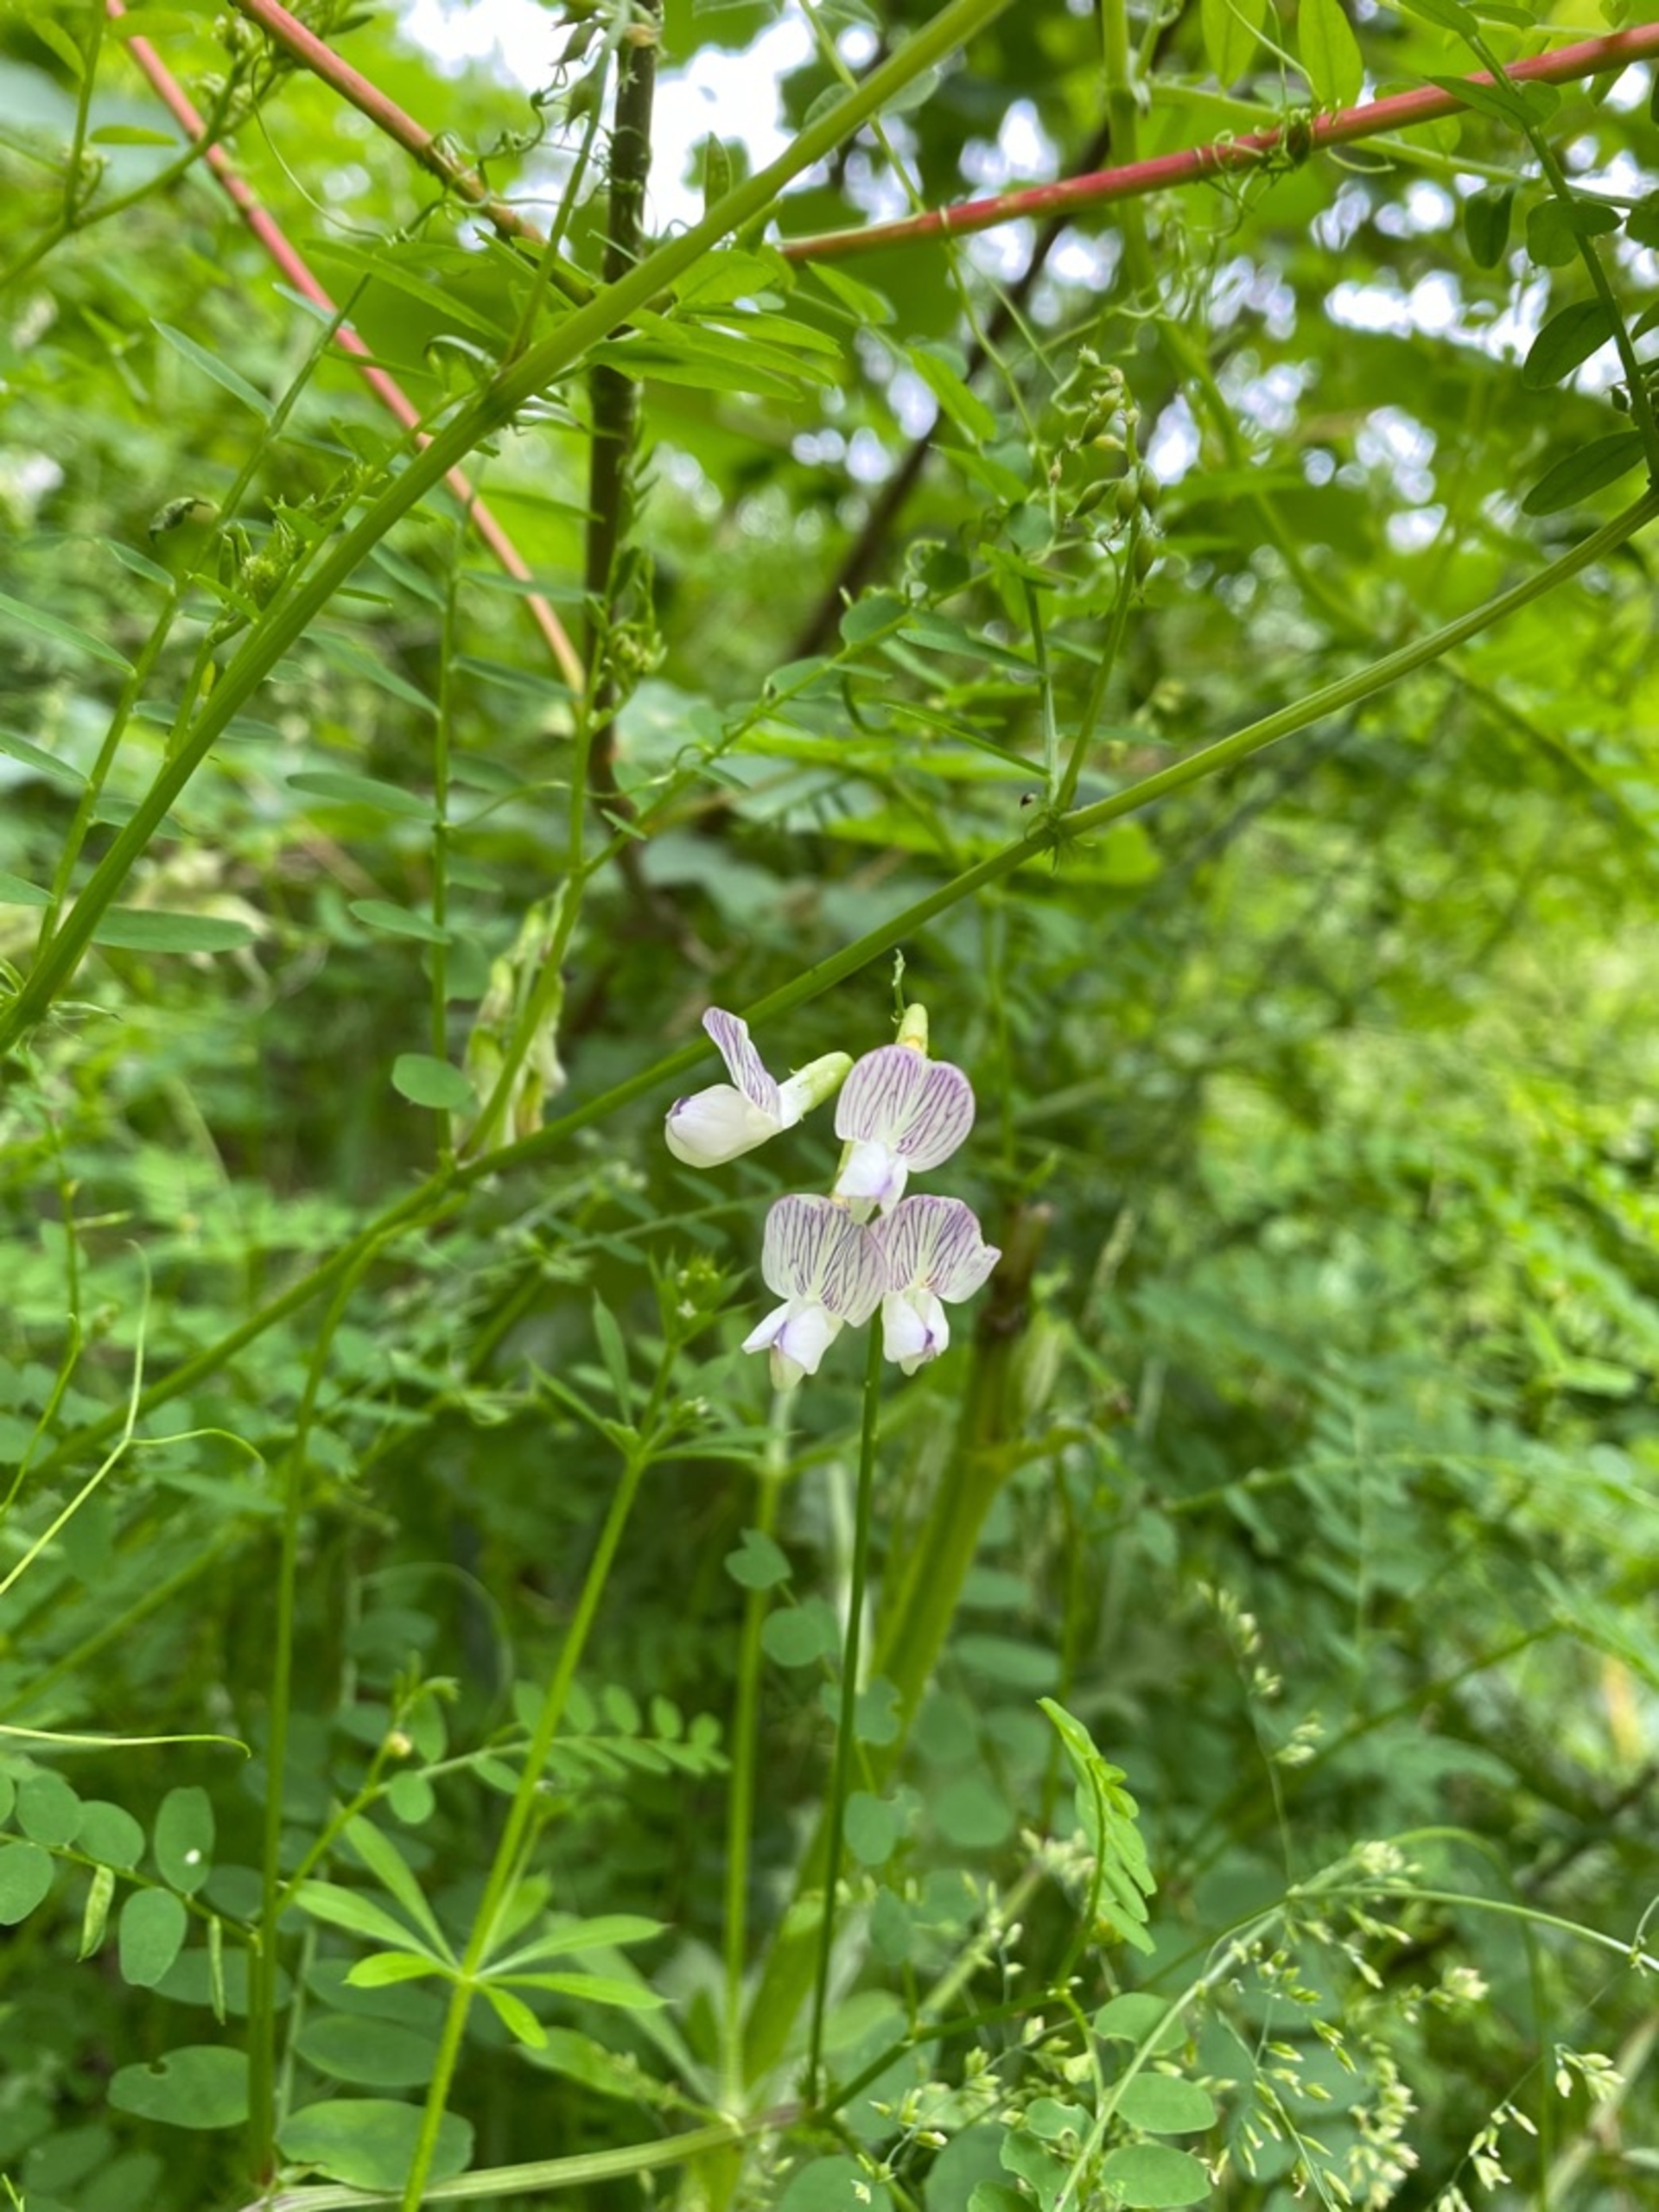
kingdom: Plantae
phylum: Tracheophyta
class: Magnoliopsida
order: Fabales
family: Fabaceae
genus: Vicia
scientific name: Vicia sylvatica
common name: Skov-vikke
